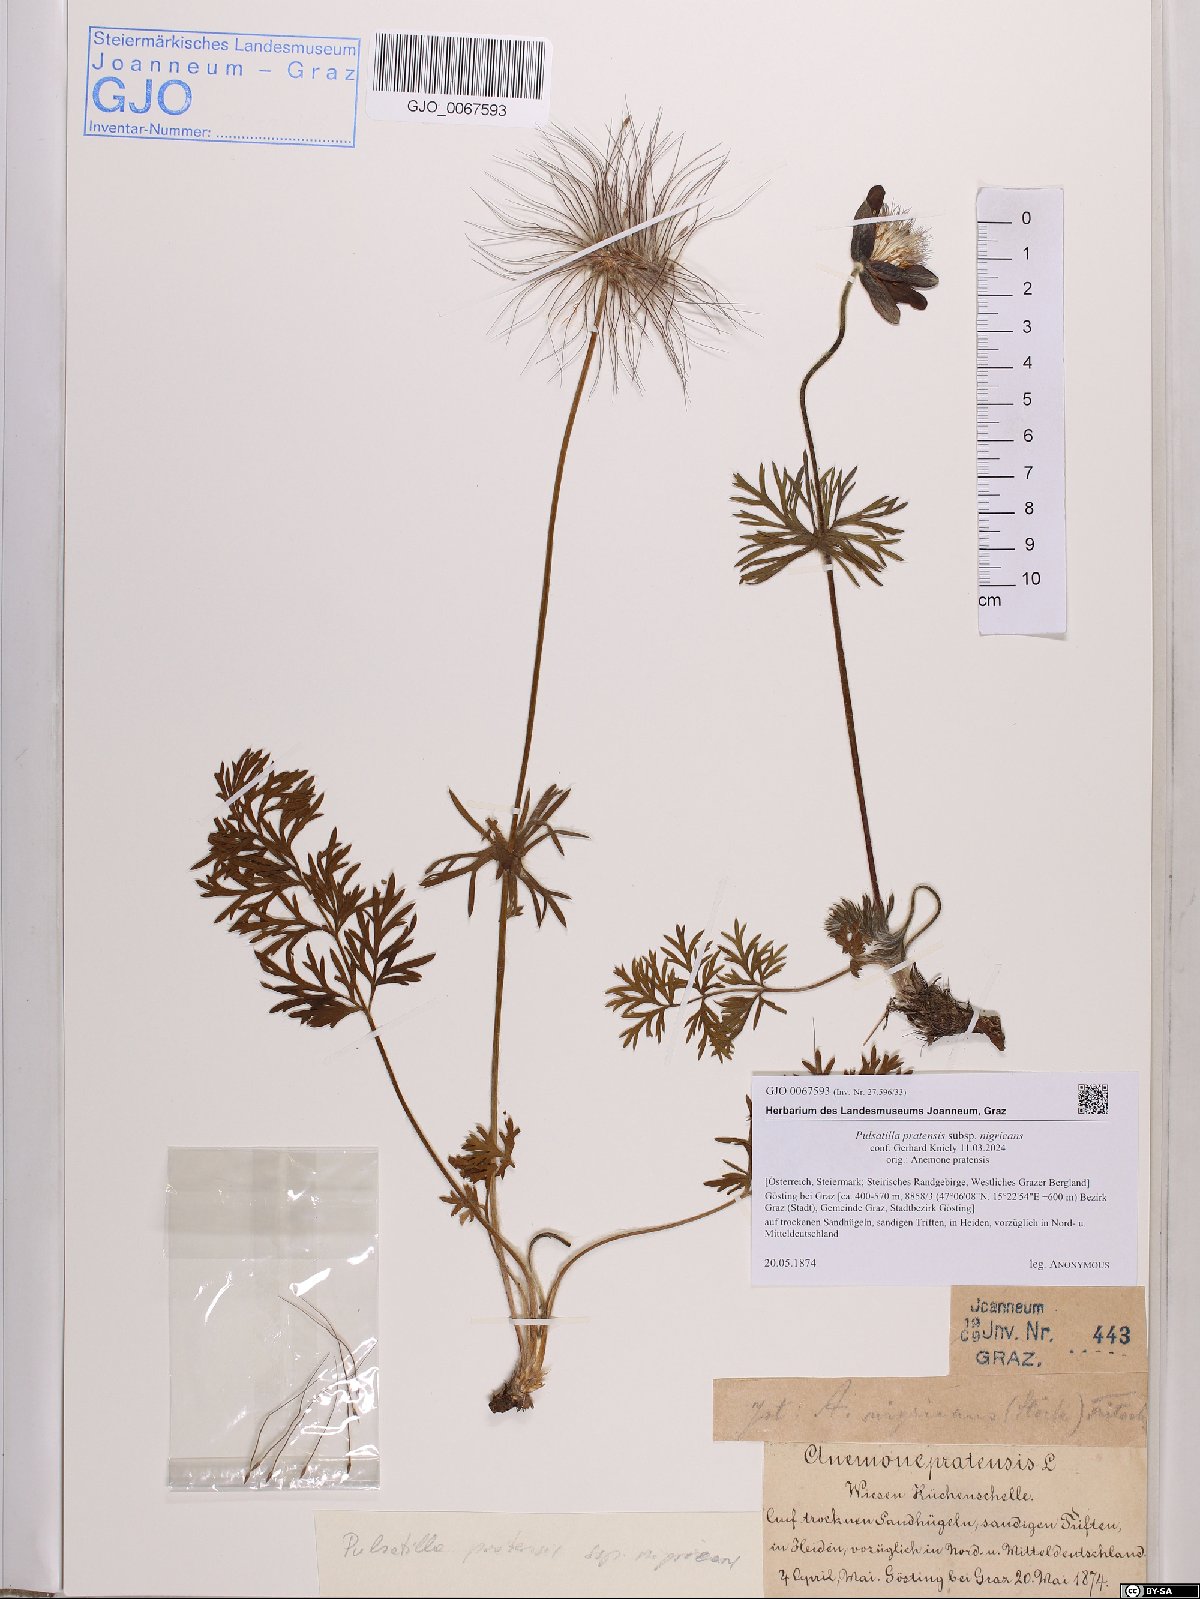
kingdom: Plantae
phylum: Tracheophyta
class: Magnoliopsida
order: Ranunculales
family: Ranunculaceae
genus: Pulsatilla
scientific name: Pulsatilla pratensis
